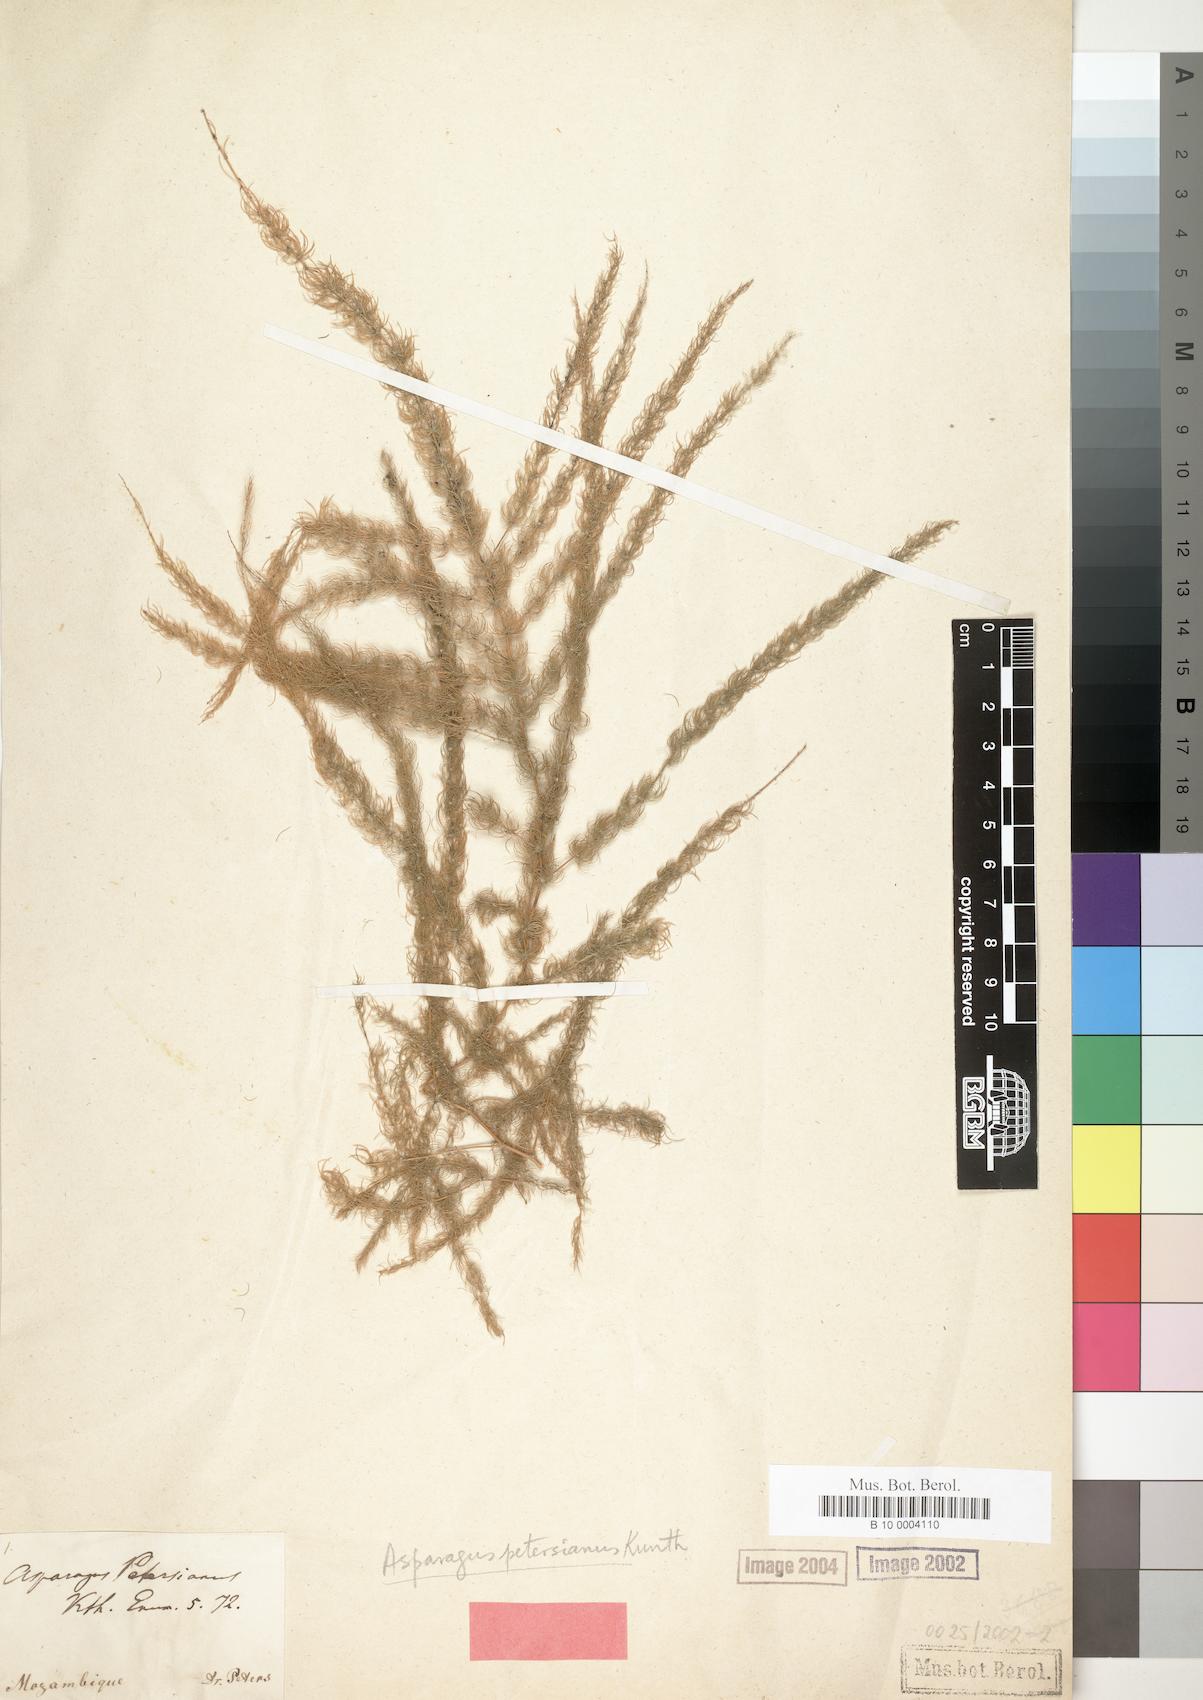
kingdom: Plantae
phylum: Tracheophyta
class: Liliopsida
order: Asparagales
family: Asparagaceae
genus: Asparagus
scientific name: Asparagus petersianus
